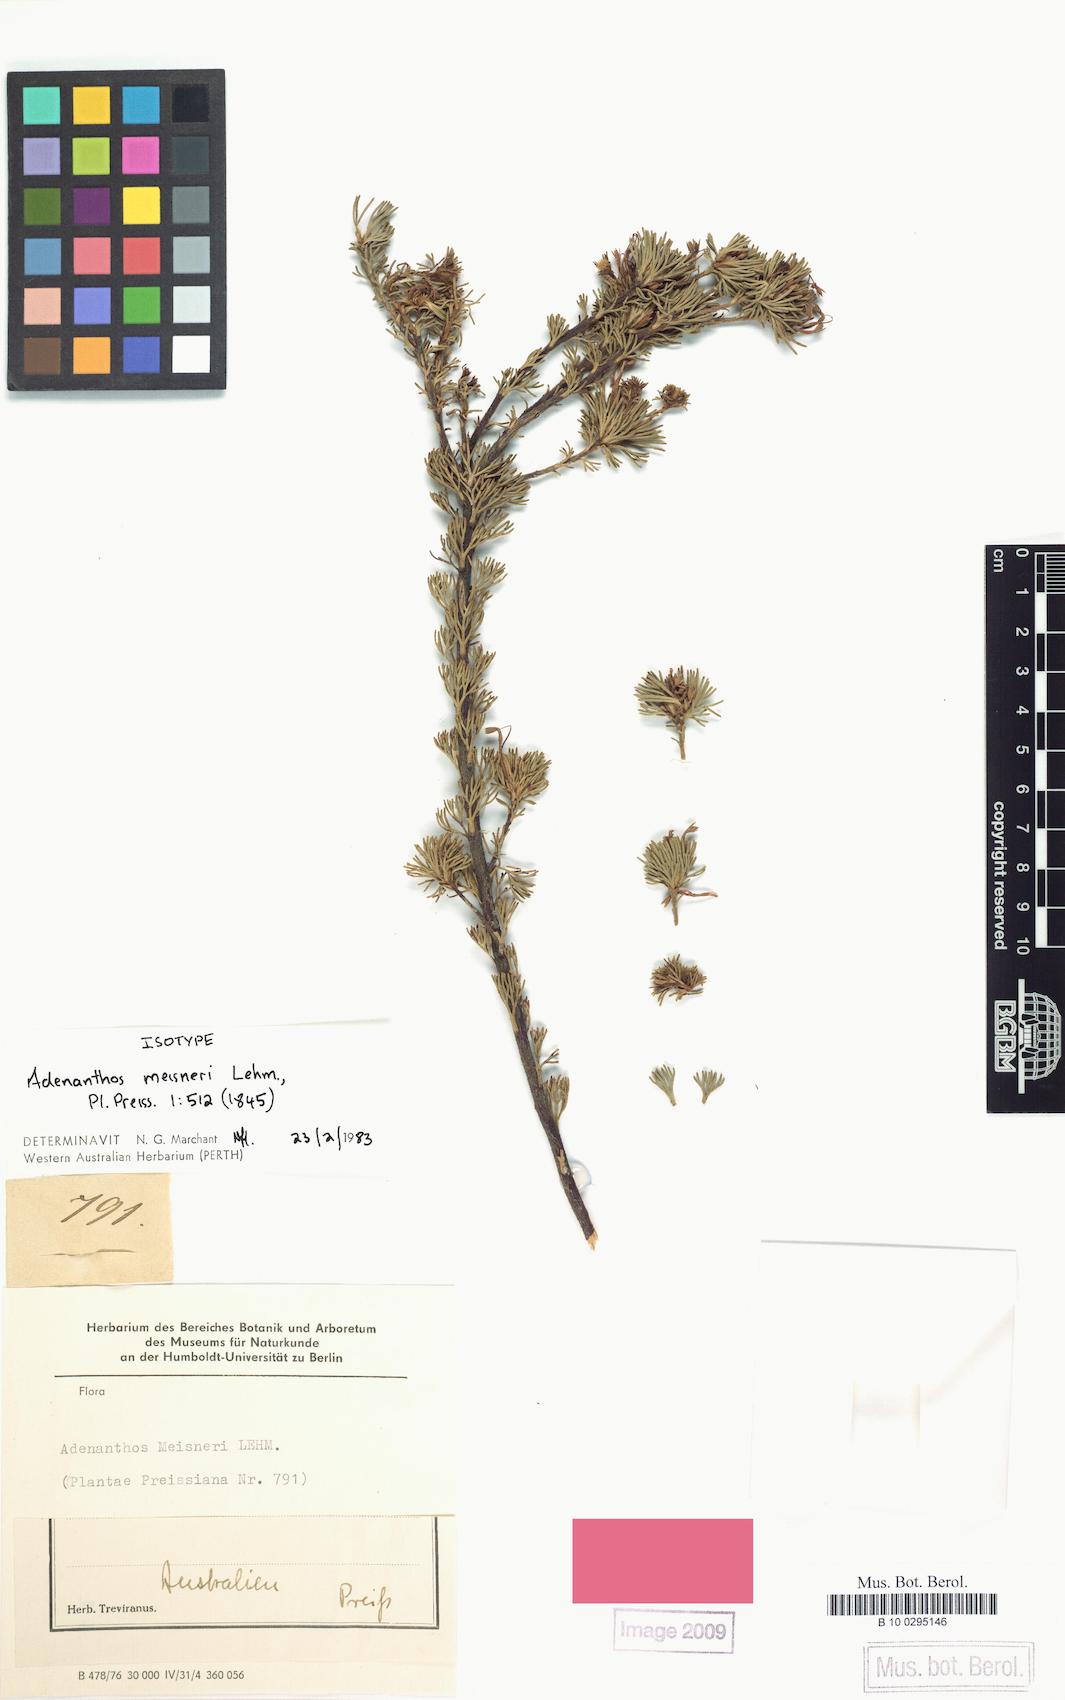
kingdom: Plantae
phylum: Tracheophyta
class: Magnoliopsida
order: Proteales
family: Proteaceae
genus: Adenanthos
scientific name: Adenanthos meisneri
